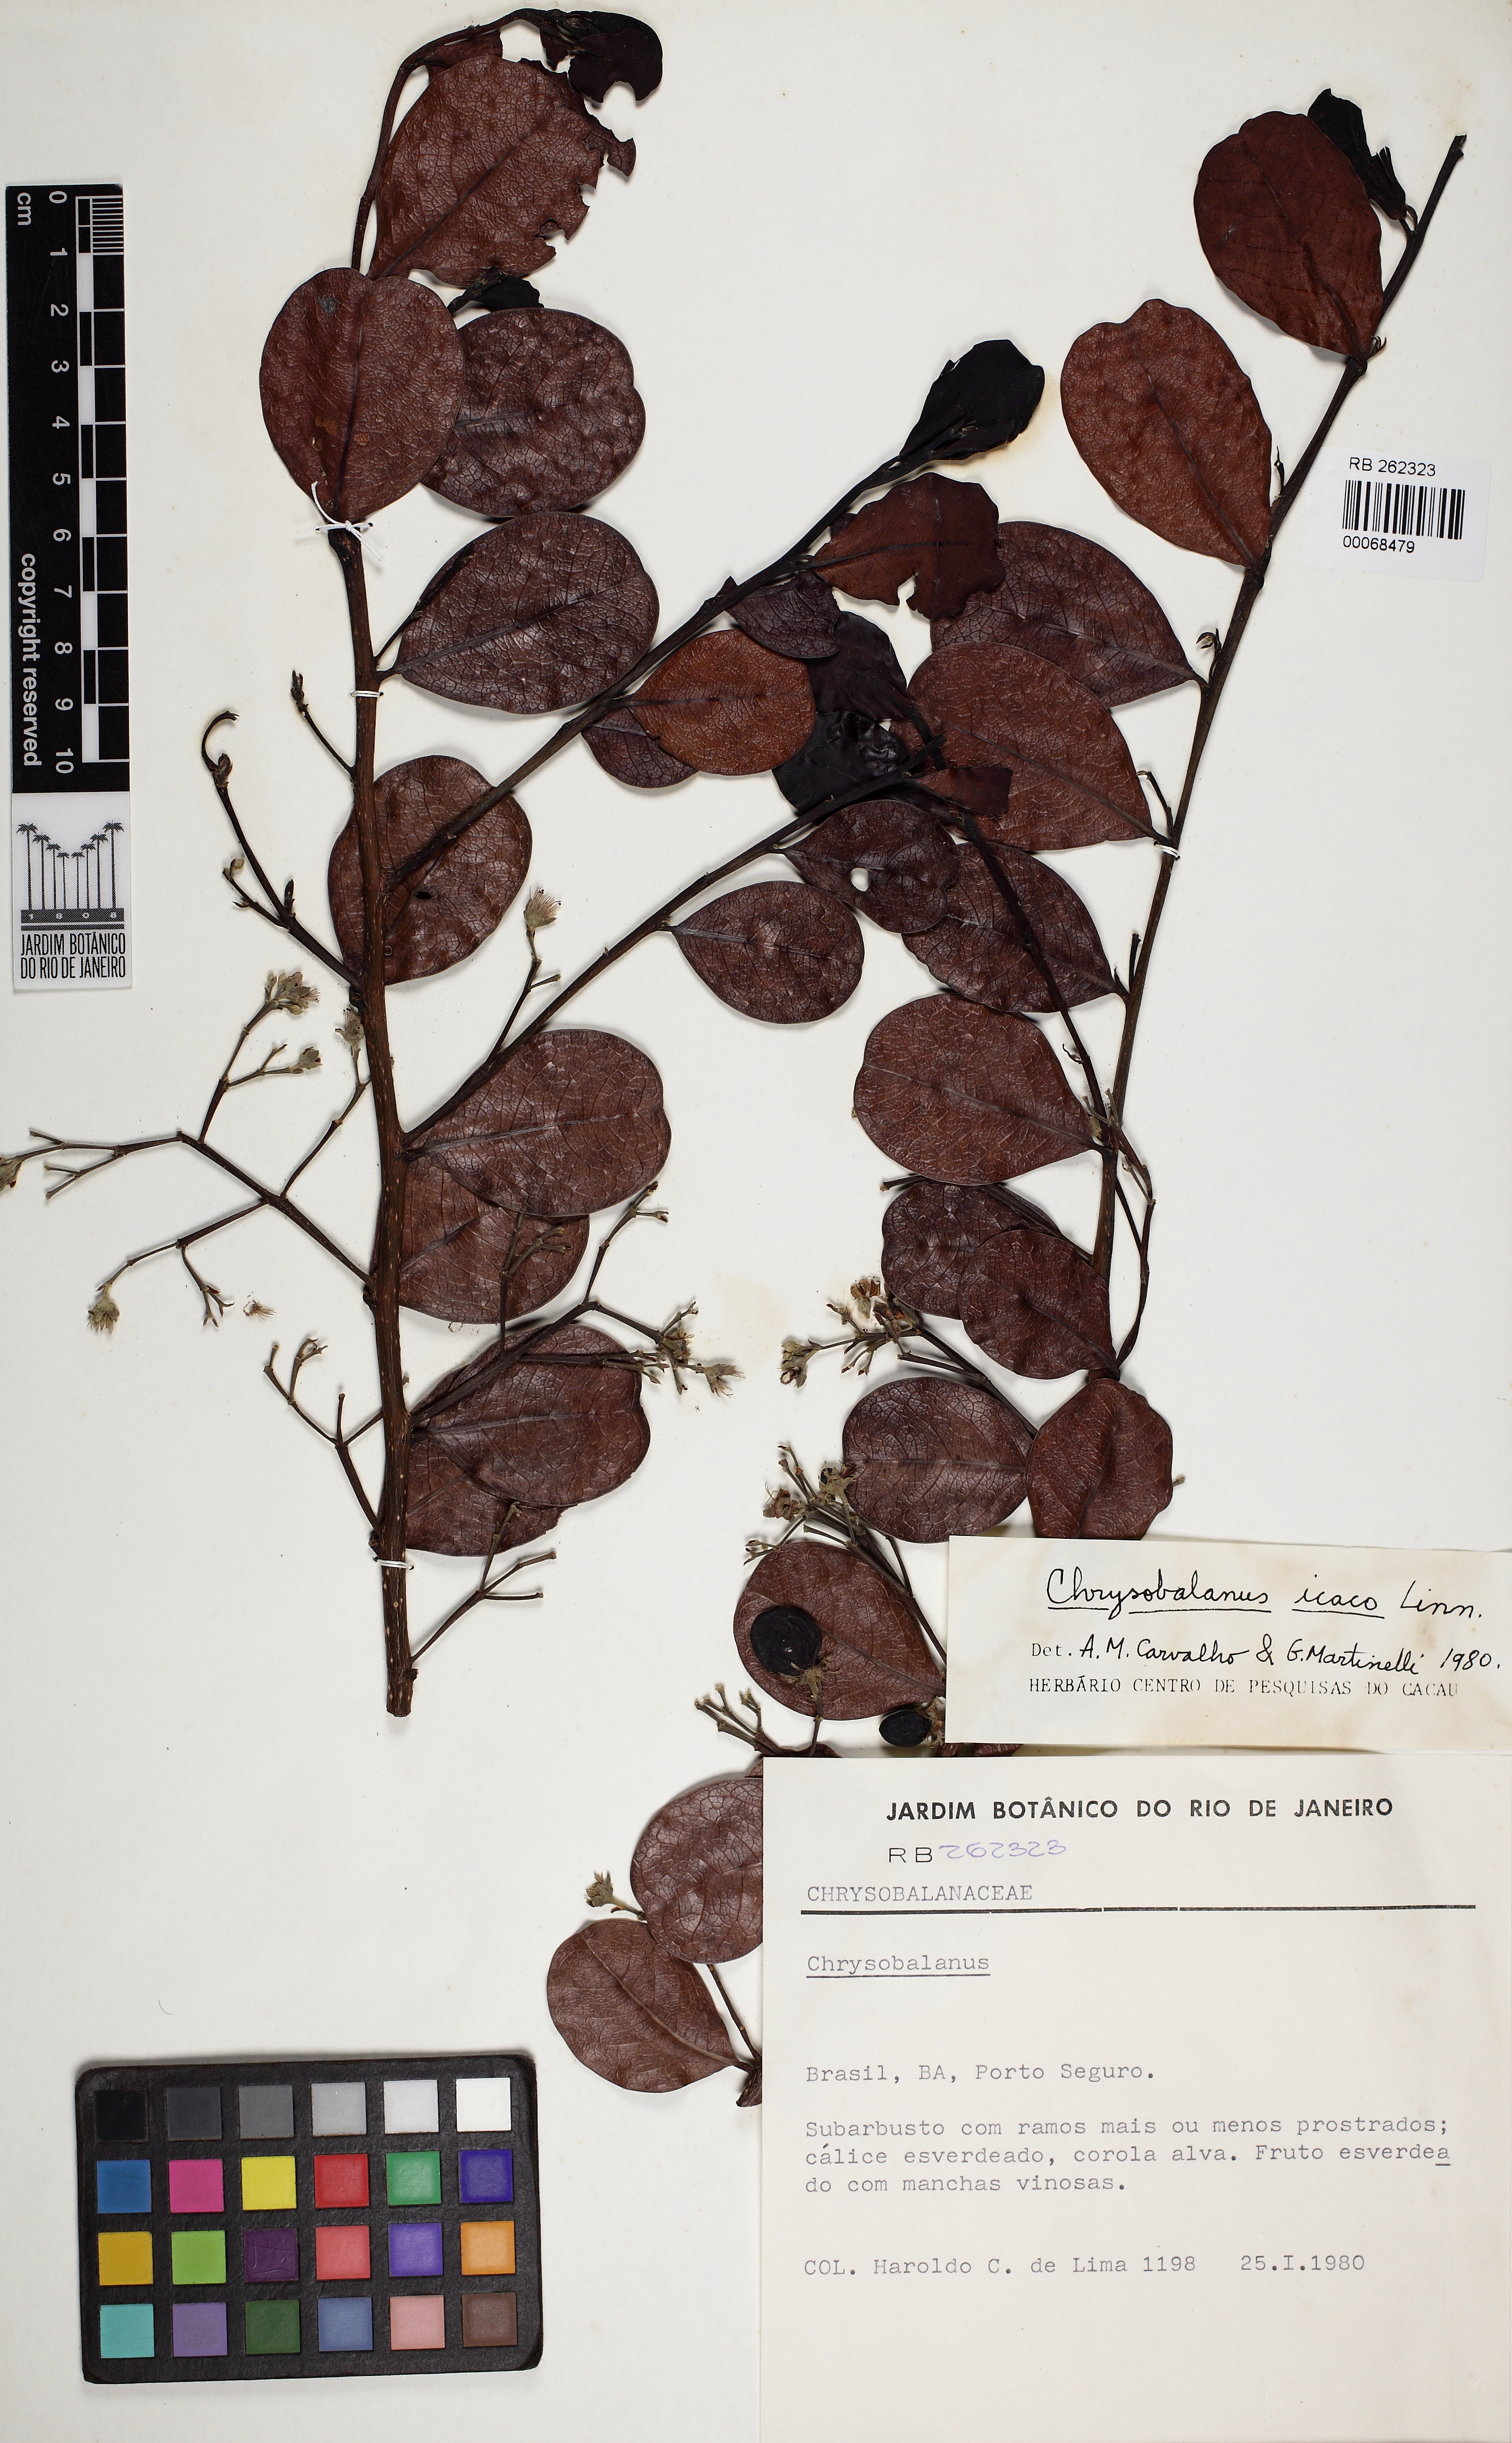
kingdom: Plantae
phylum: Tracheophyta
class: Magnoliopsida
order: Malpighiales
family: Chrysobalanaceae
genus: Chrysobalanus
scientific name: Chrysobalanus icaco
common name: Coco plum
